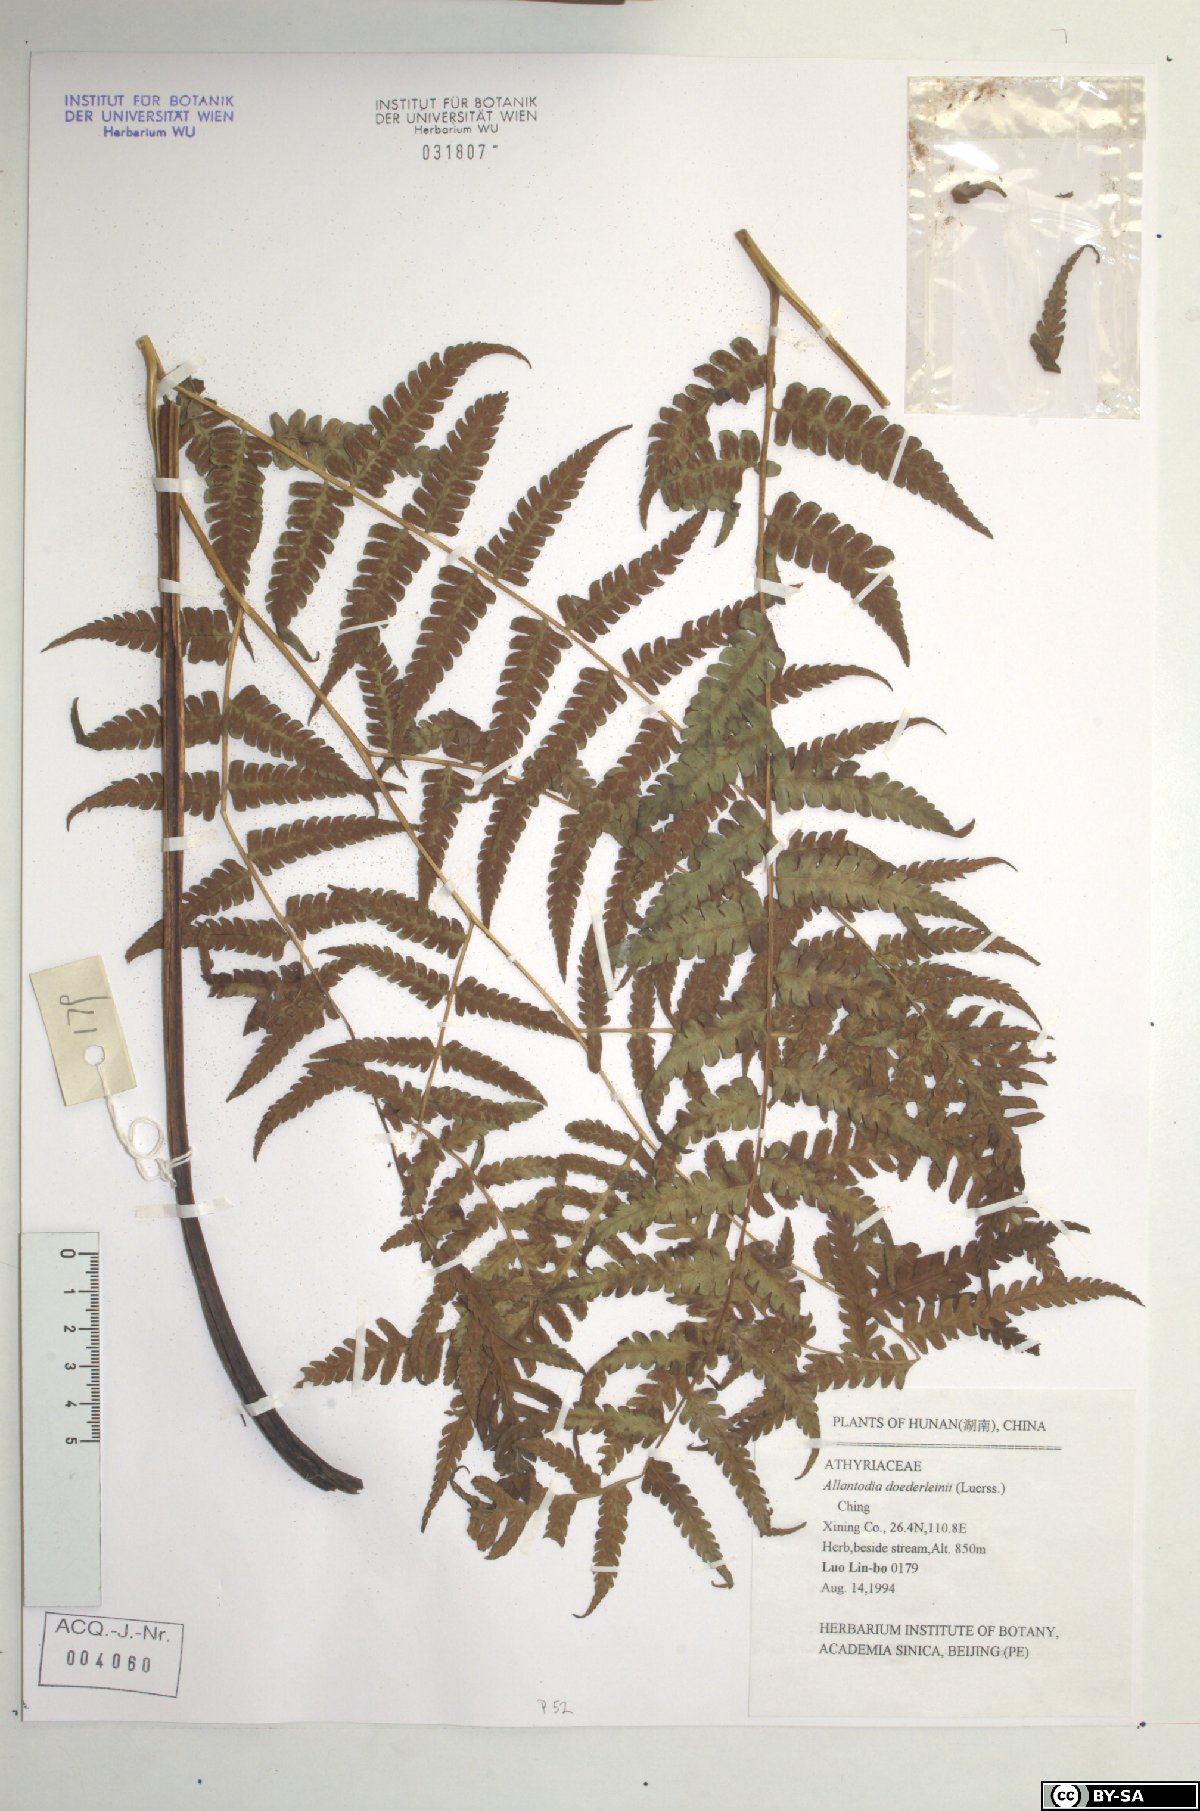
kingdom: Plantae
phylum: Tracheophyta
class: Polypodiopsida
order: Polypodiales
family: Athyriaceae
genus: Diplazium
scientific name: Diplazium doederleinii
